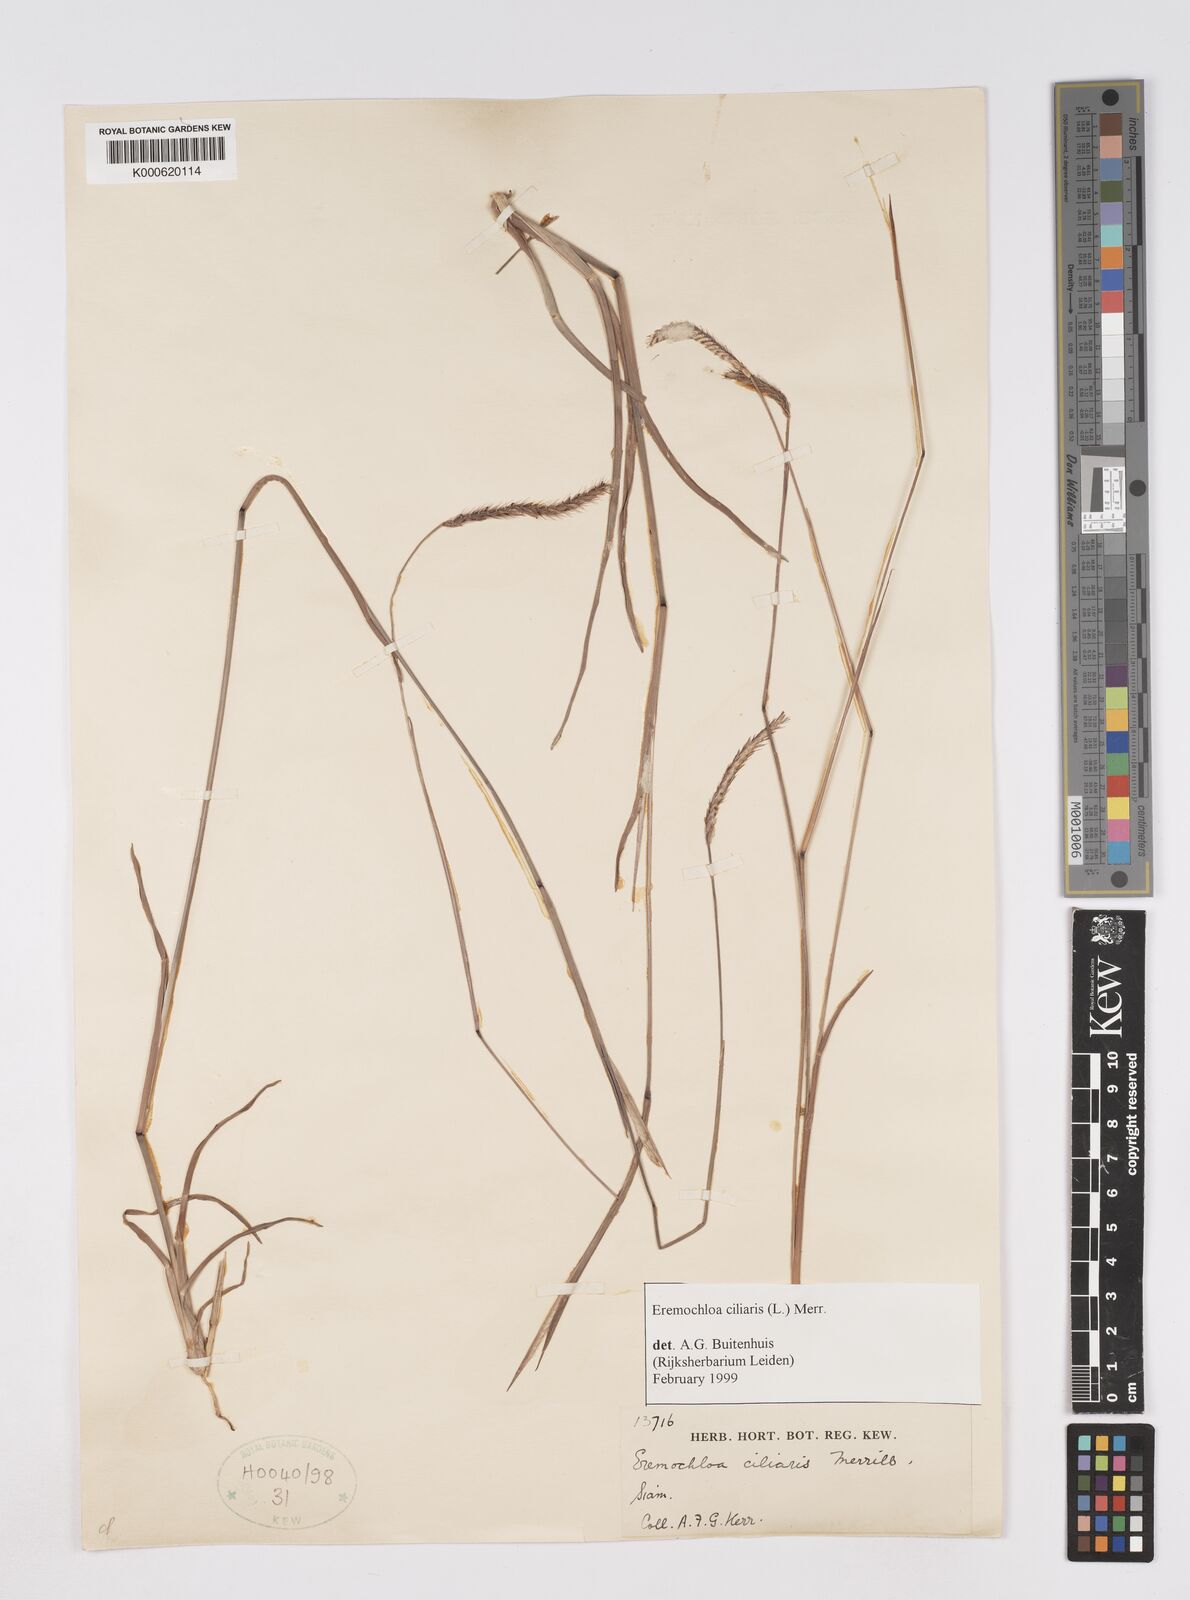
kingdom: Plantae
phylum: Tracheophyta
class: Liliopsida
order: Poales
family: Poaceae
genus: Eremochloa
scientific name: Eremochloa ciliaris
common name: Fringed centipede grass
